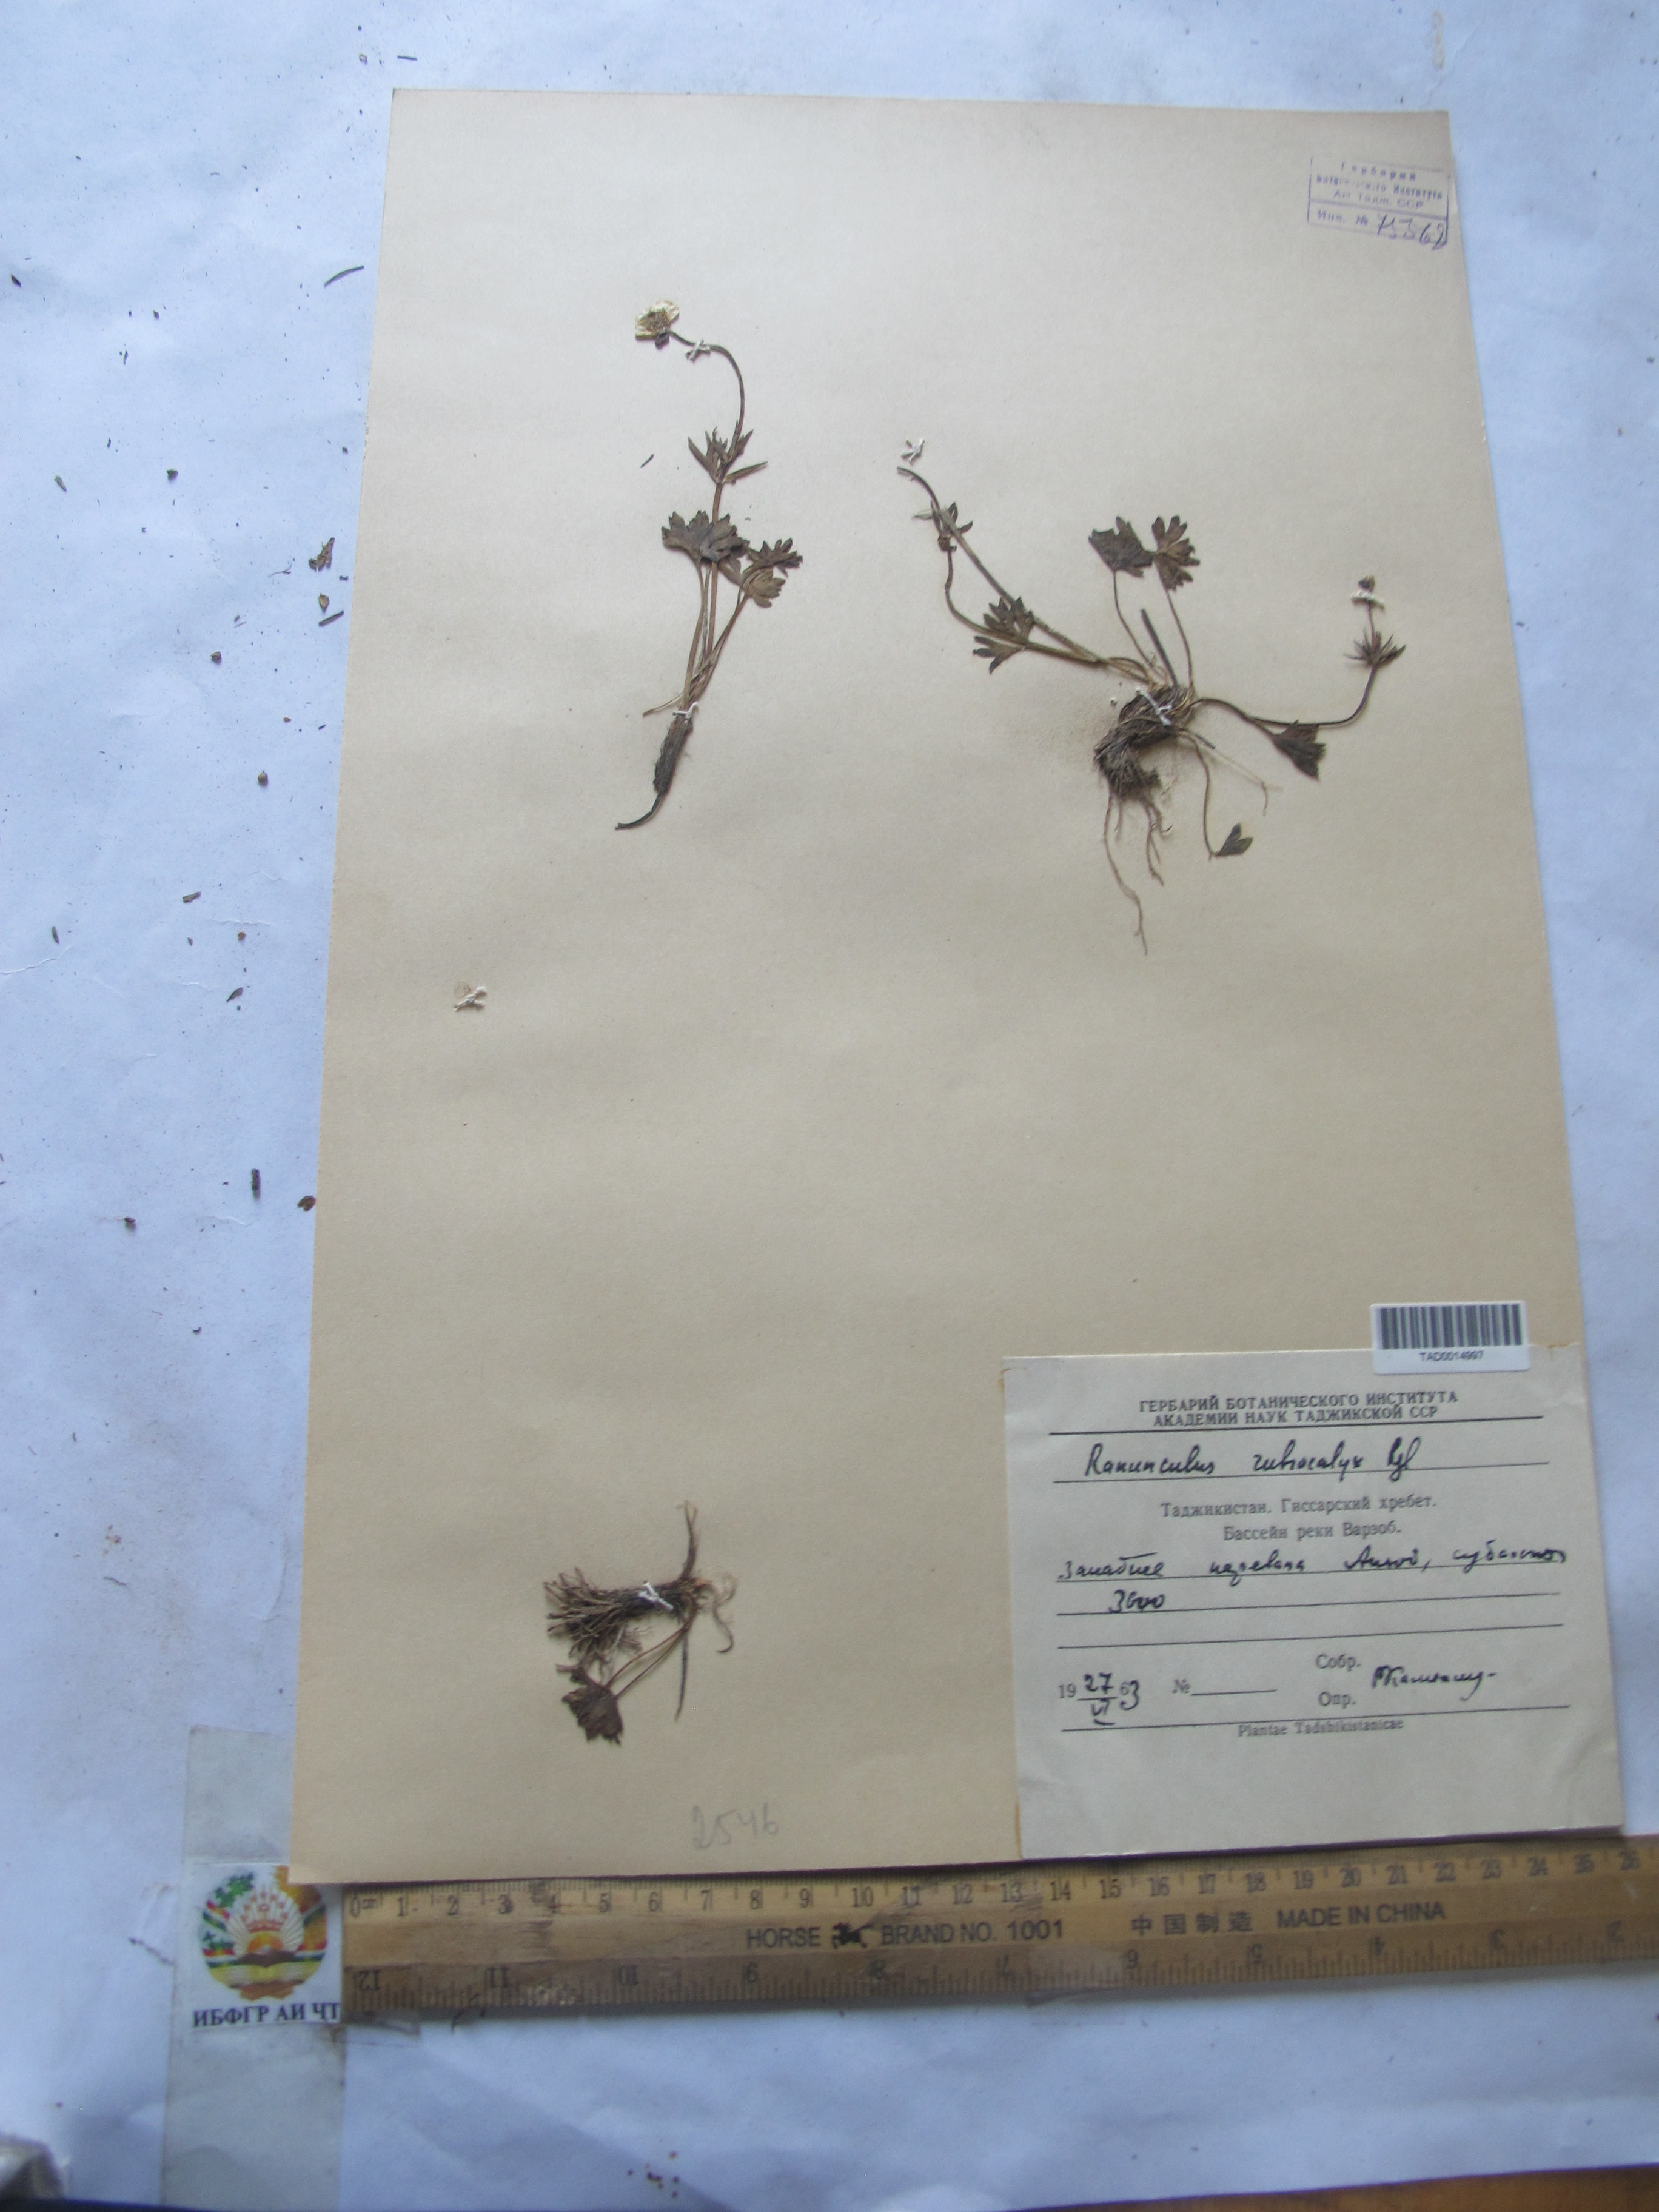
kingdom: Plantae
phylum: Tracheophyta
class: Magnoliopsida
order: Ranunculales
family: Ranunculaceae
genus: Ranunculus
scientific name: Ranunculus rubrocalyx
